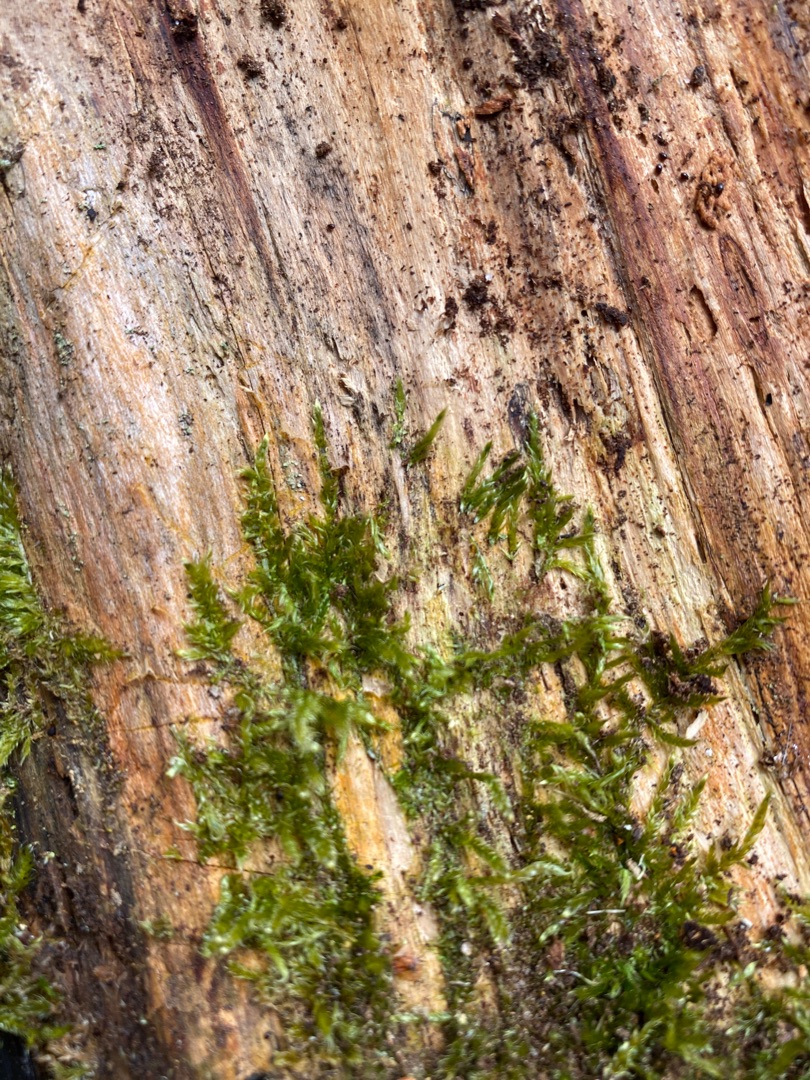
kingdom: Plantae
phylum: Bryophyta
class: Bryopsida
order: Hypnales
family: Hypnaceae
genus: Hypnum
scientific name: Hypnum
